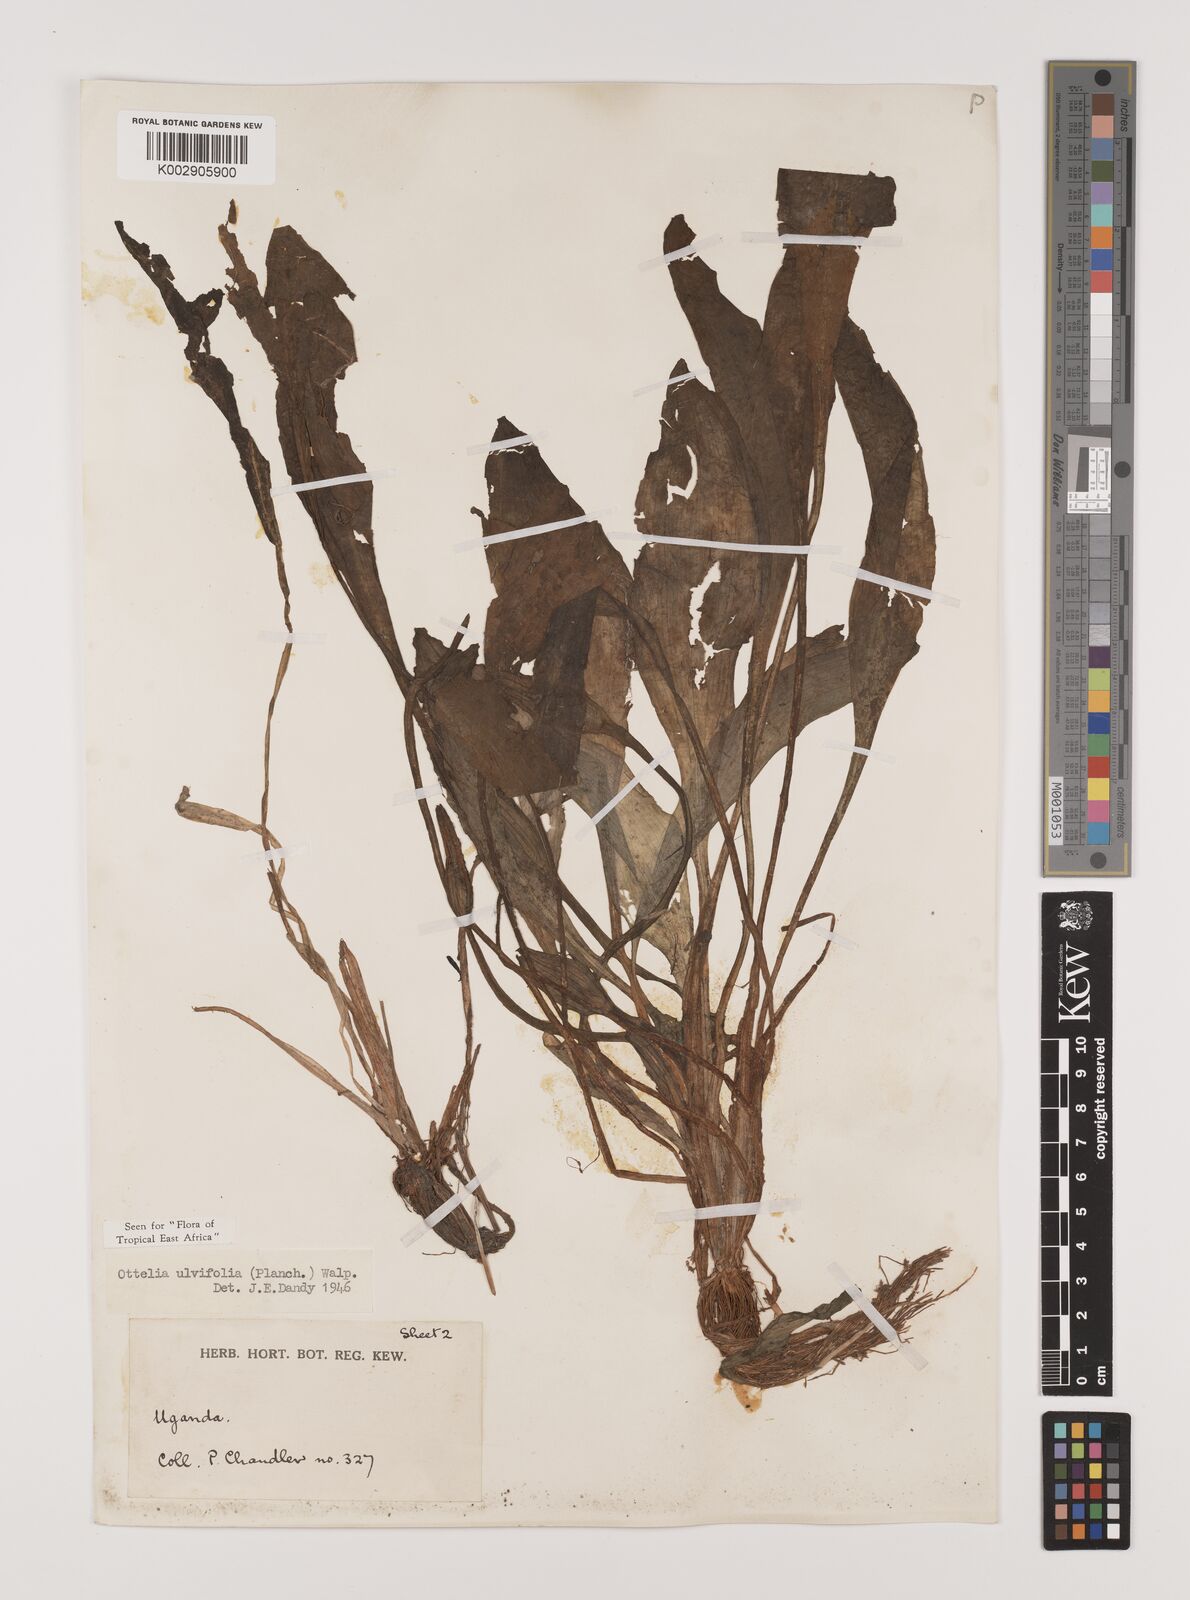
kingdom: Plantae
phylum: Tracheophyta
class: Liliopsida
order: Alismatales
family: Hydrocharitaceae
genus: Ottelia
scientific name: Ottelia ulvifolia
